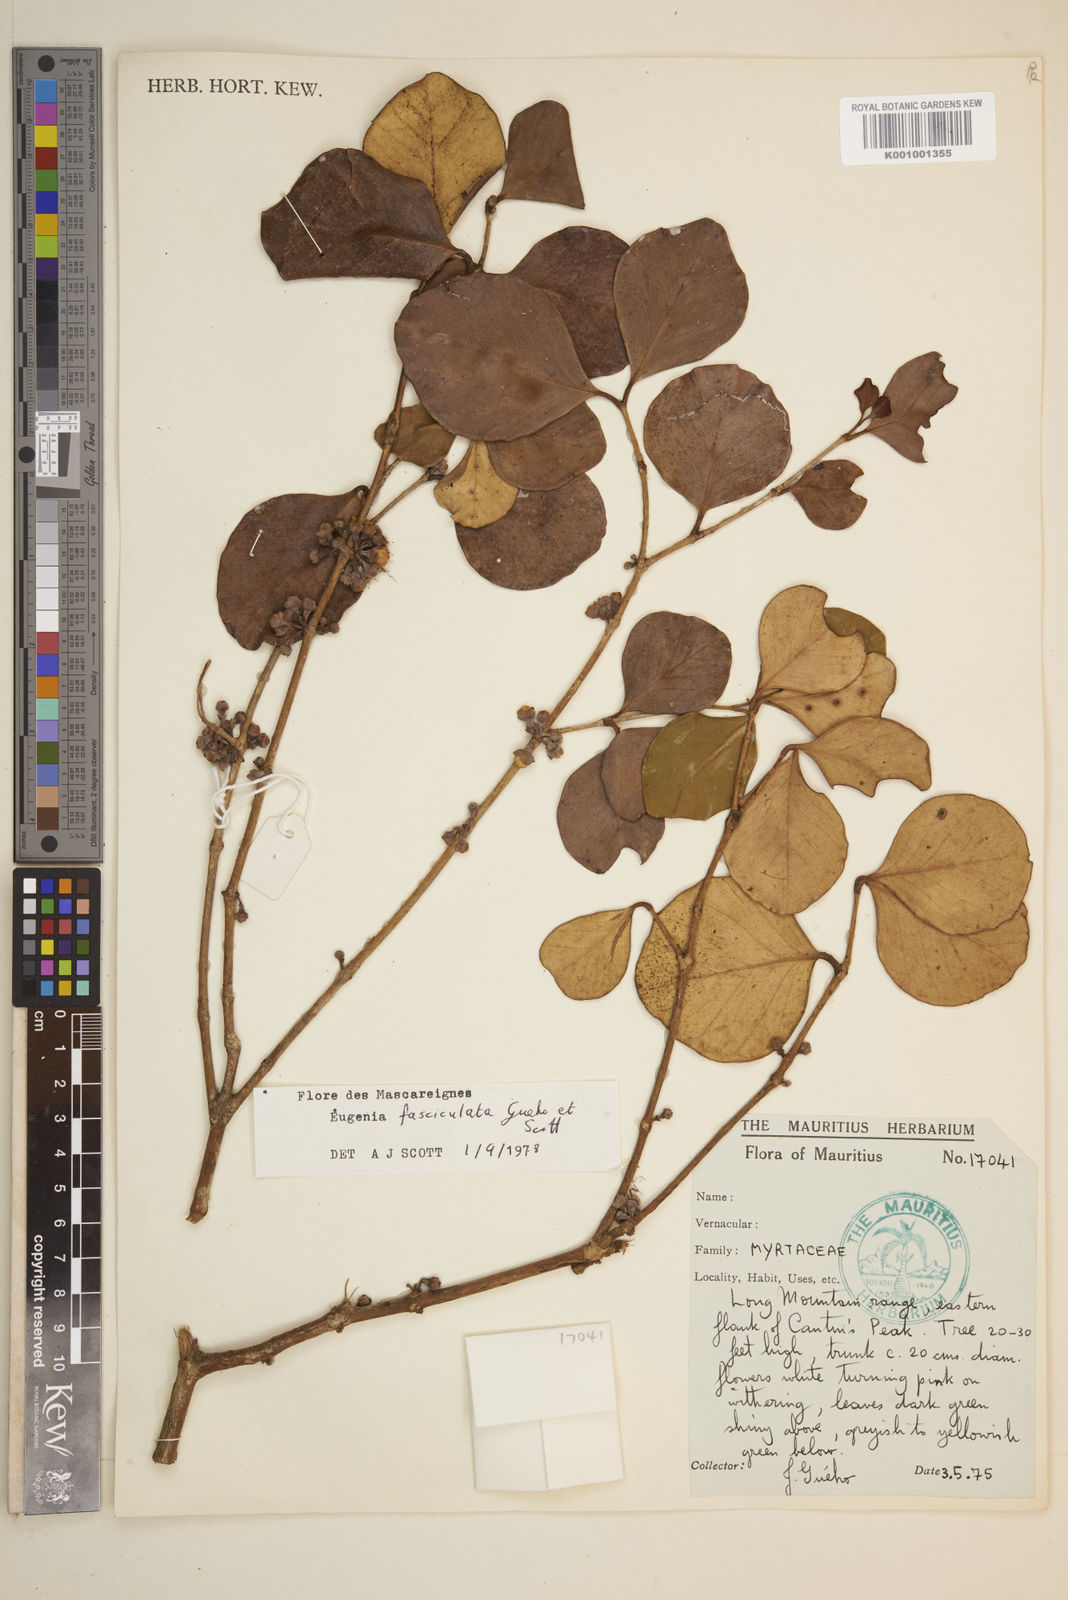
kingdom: Plantae
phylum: Tracheophyta
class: Magnoliopsida
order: Myrtales
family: Myrtaceae
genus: Eugenia
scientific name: Eugenia roxburghii
